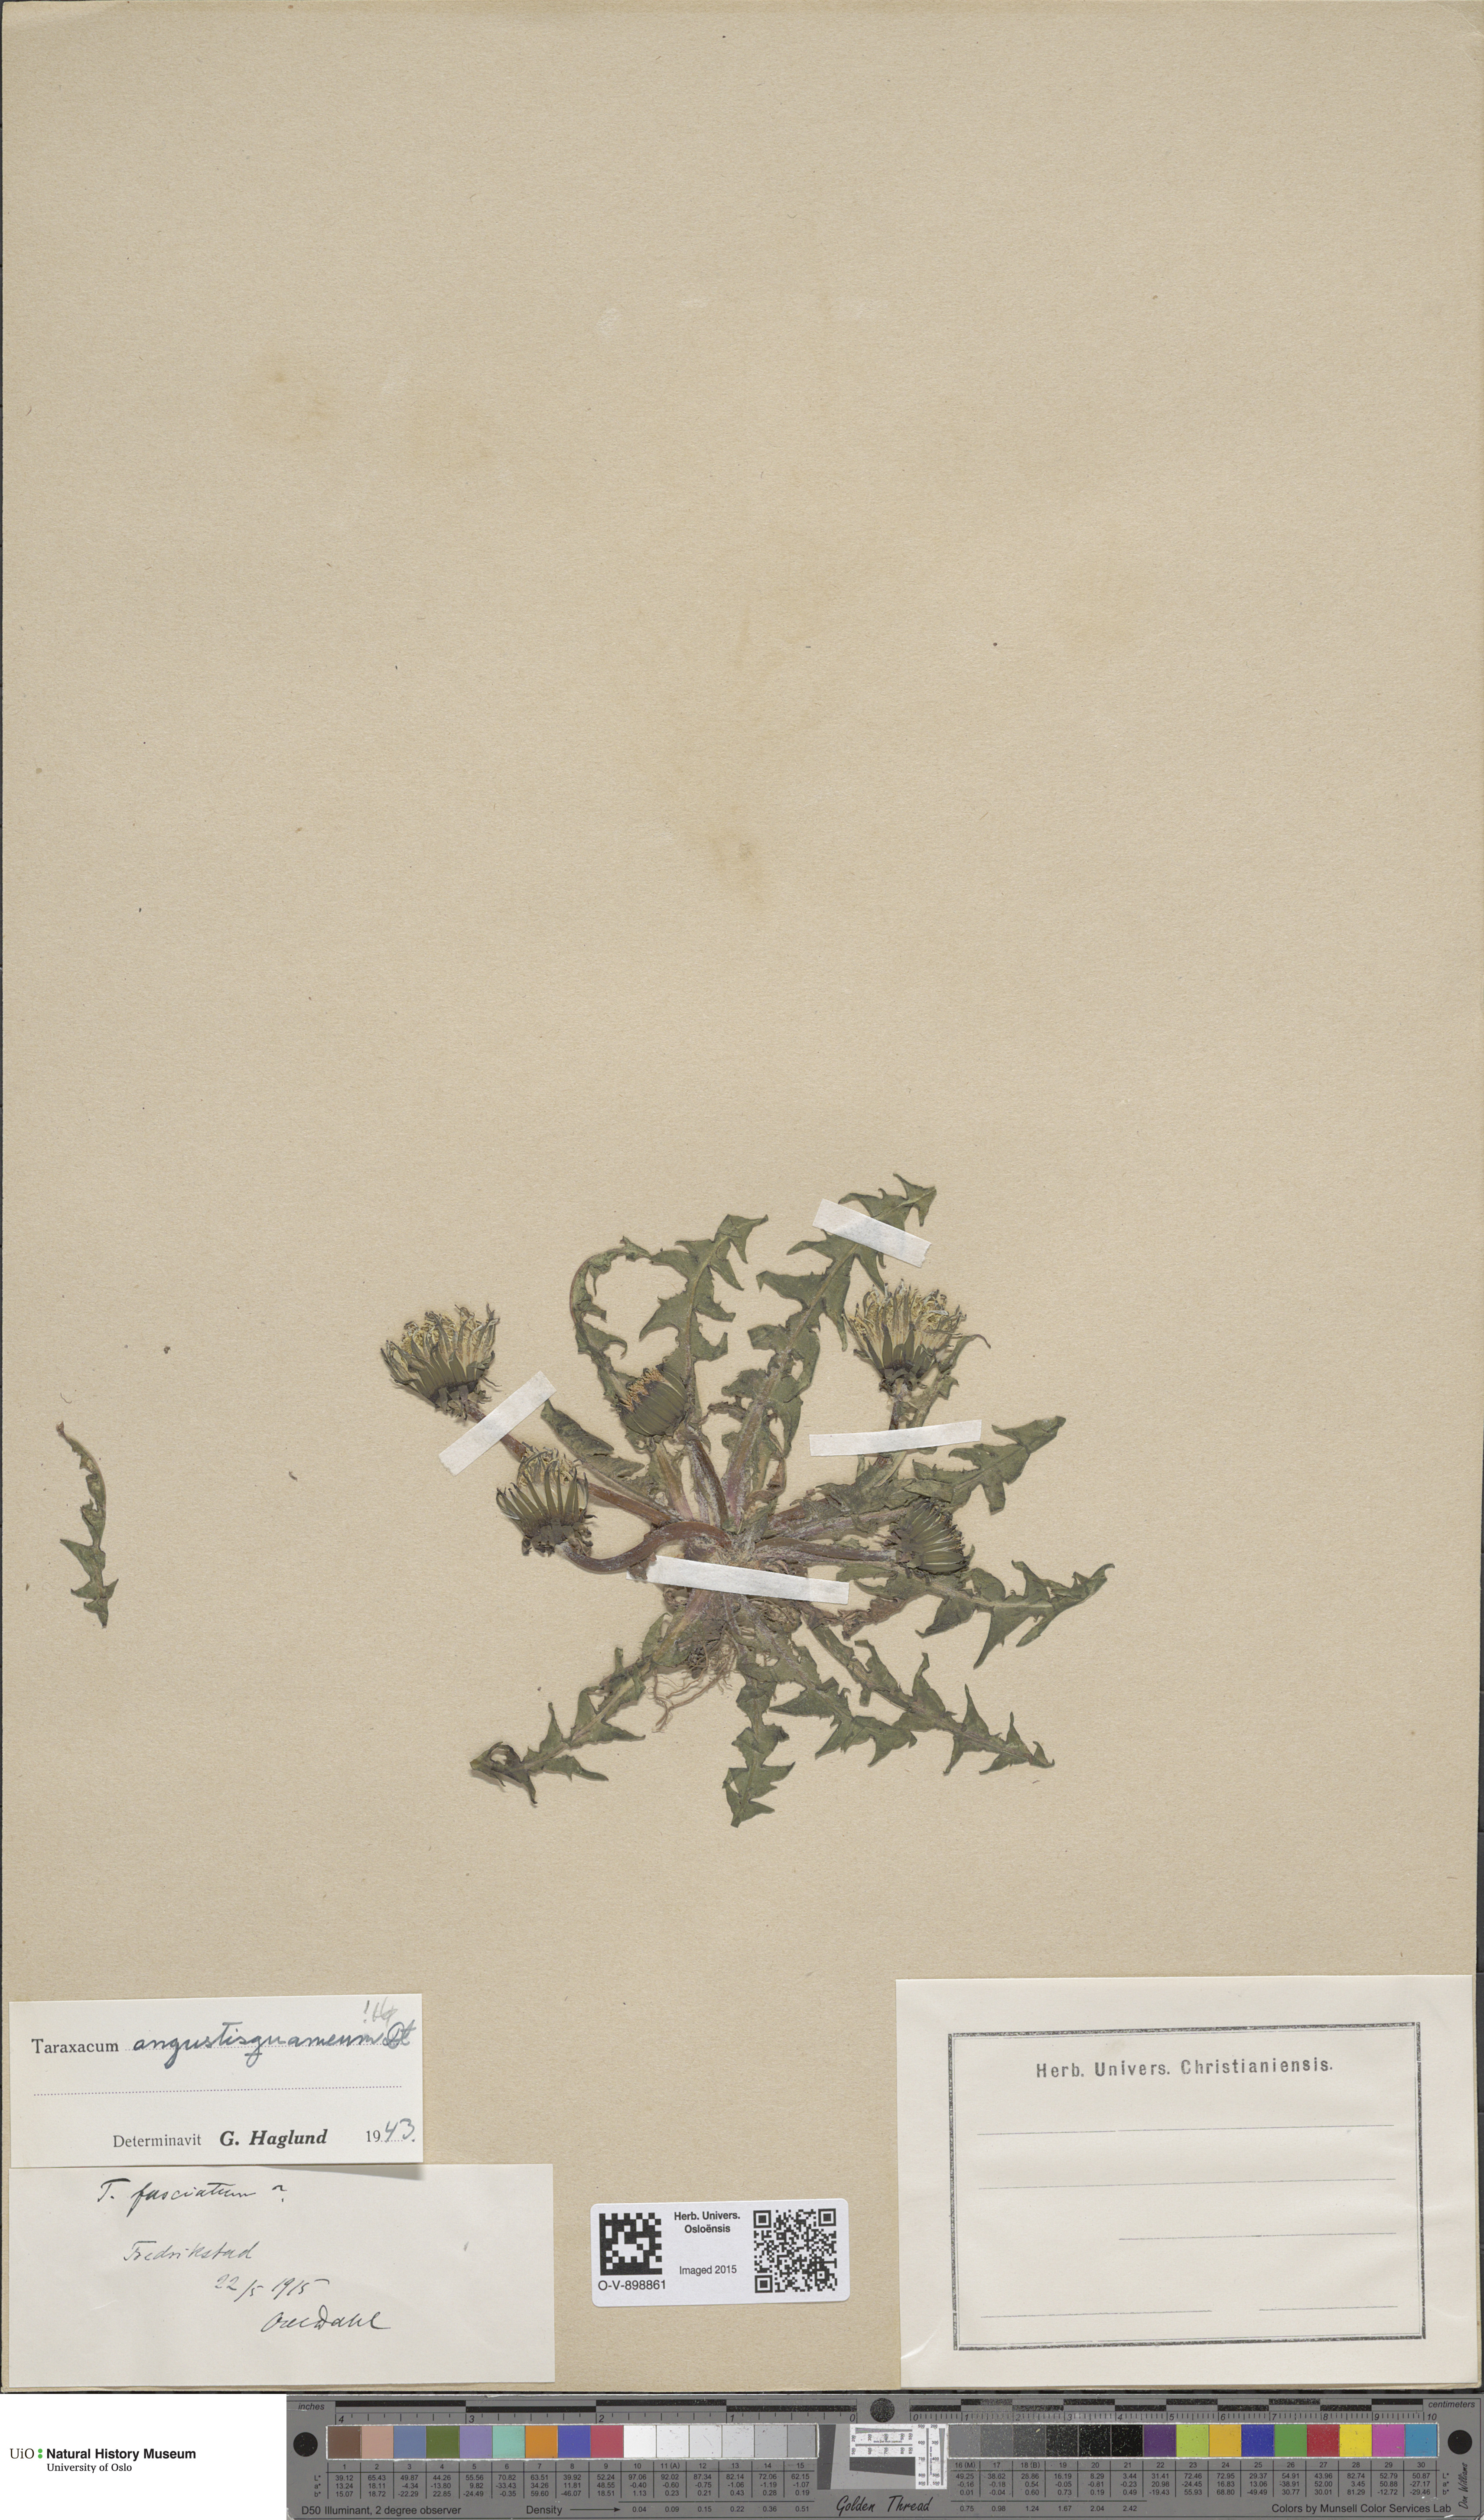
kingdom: Plantae
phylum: Tracheophyta
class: Magnoliopsida
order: Asterales
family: Asteraceae
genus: Taraxacum
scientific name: Taraxacum angustisquameum
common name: Multilobed dandelion
